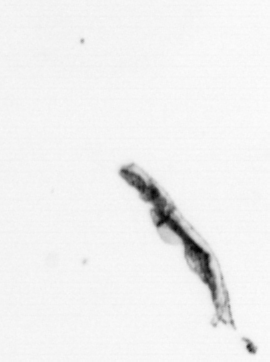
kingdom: Chromista
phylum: Ochrophyta
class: Bacillariophyceae
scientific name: Bacillariophyceae
